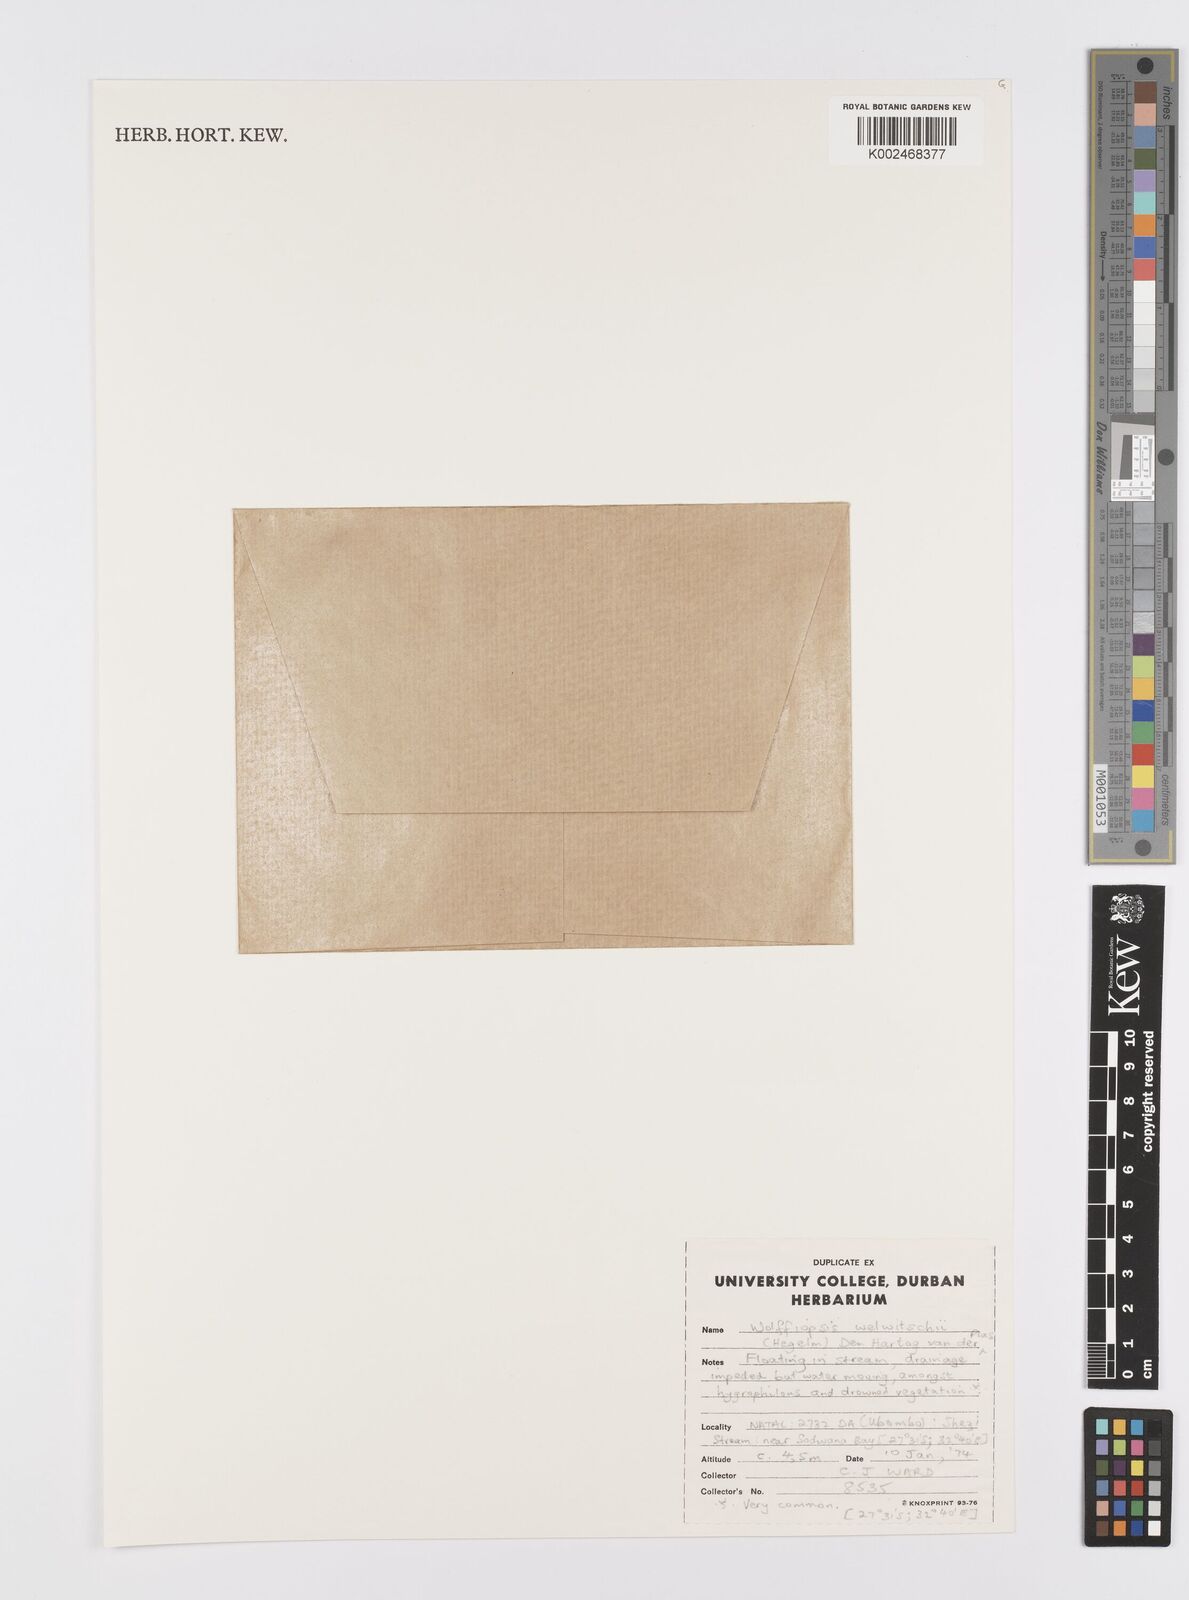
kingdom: Plantae
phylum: Tracheophyta
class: Liliopsida
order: Alismatales
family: Araceae
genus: Wolffiella
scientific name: Wolffiella welwitschii
